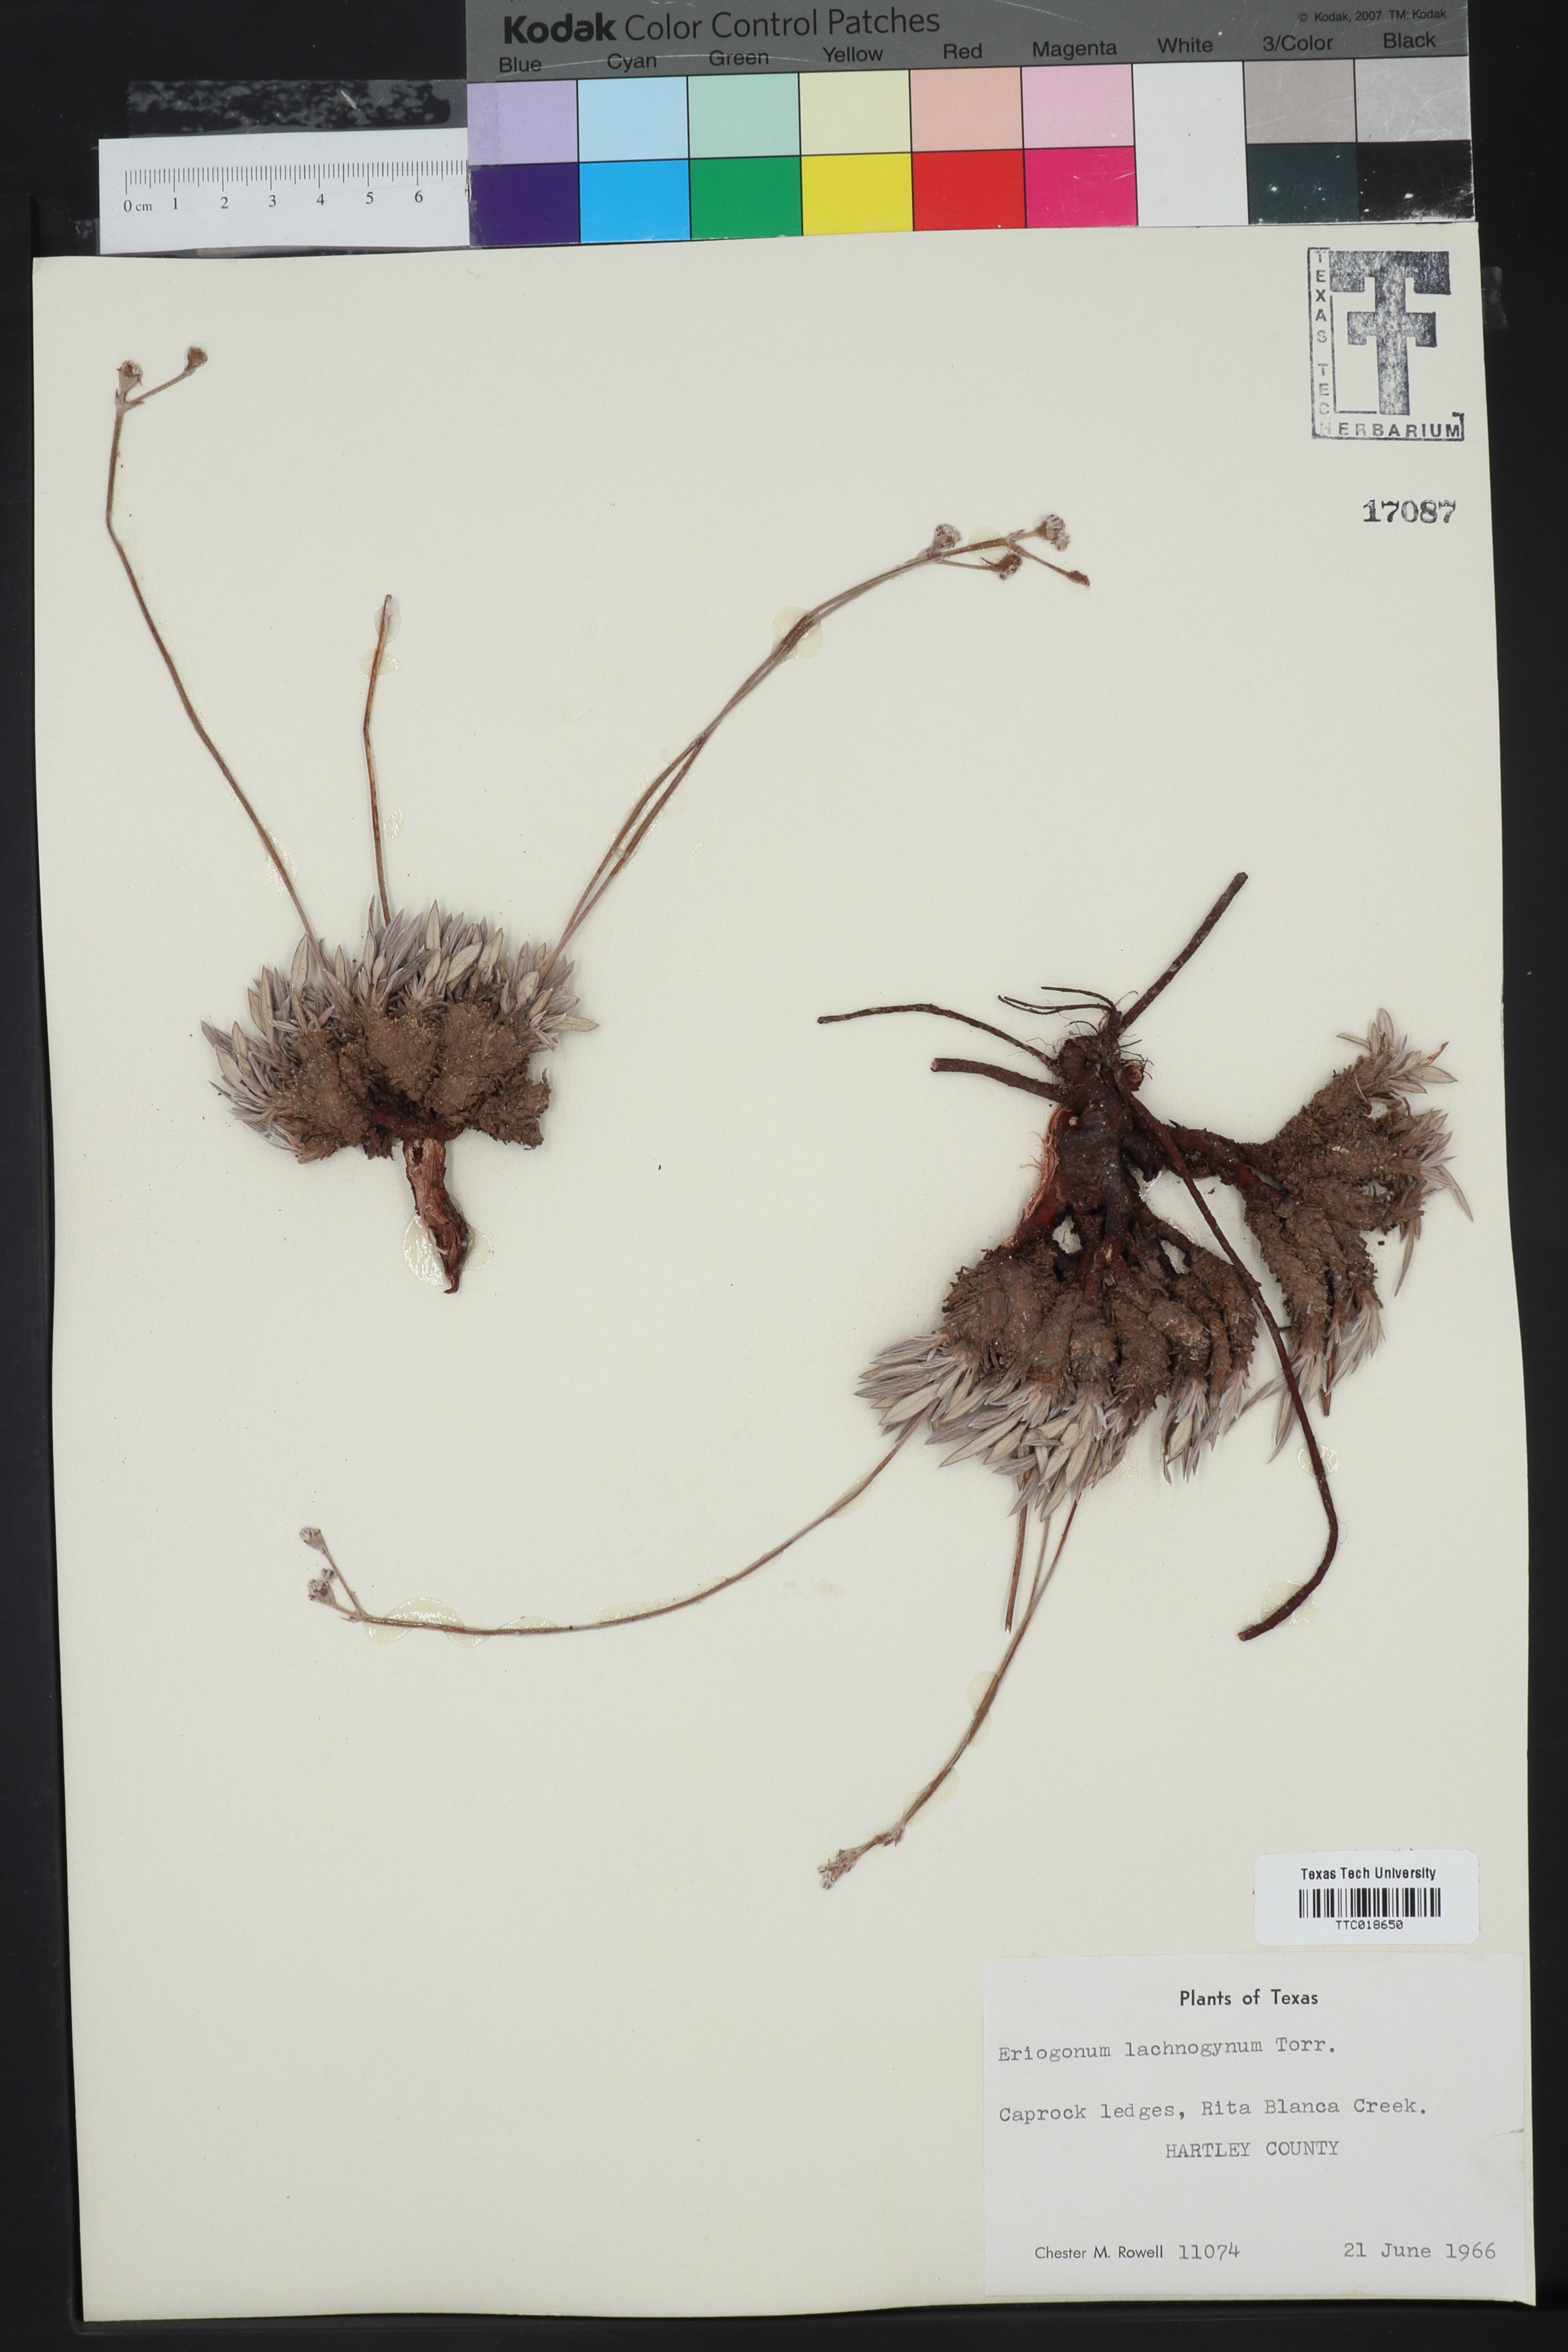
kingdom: Plantae
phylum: Tracheophyta
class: Magnoliopsida
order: Caryophyllales
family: Polygonaceae
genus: Eriogonum
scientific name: Eriogonum lachnogynum
